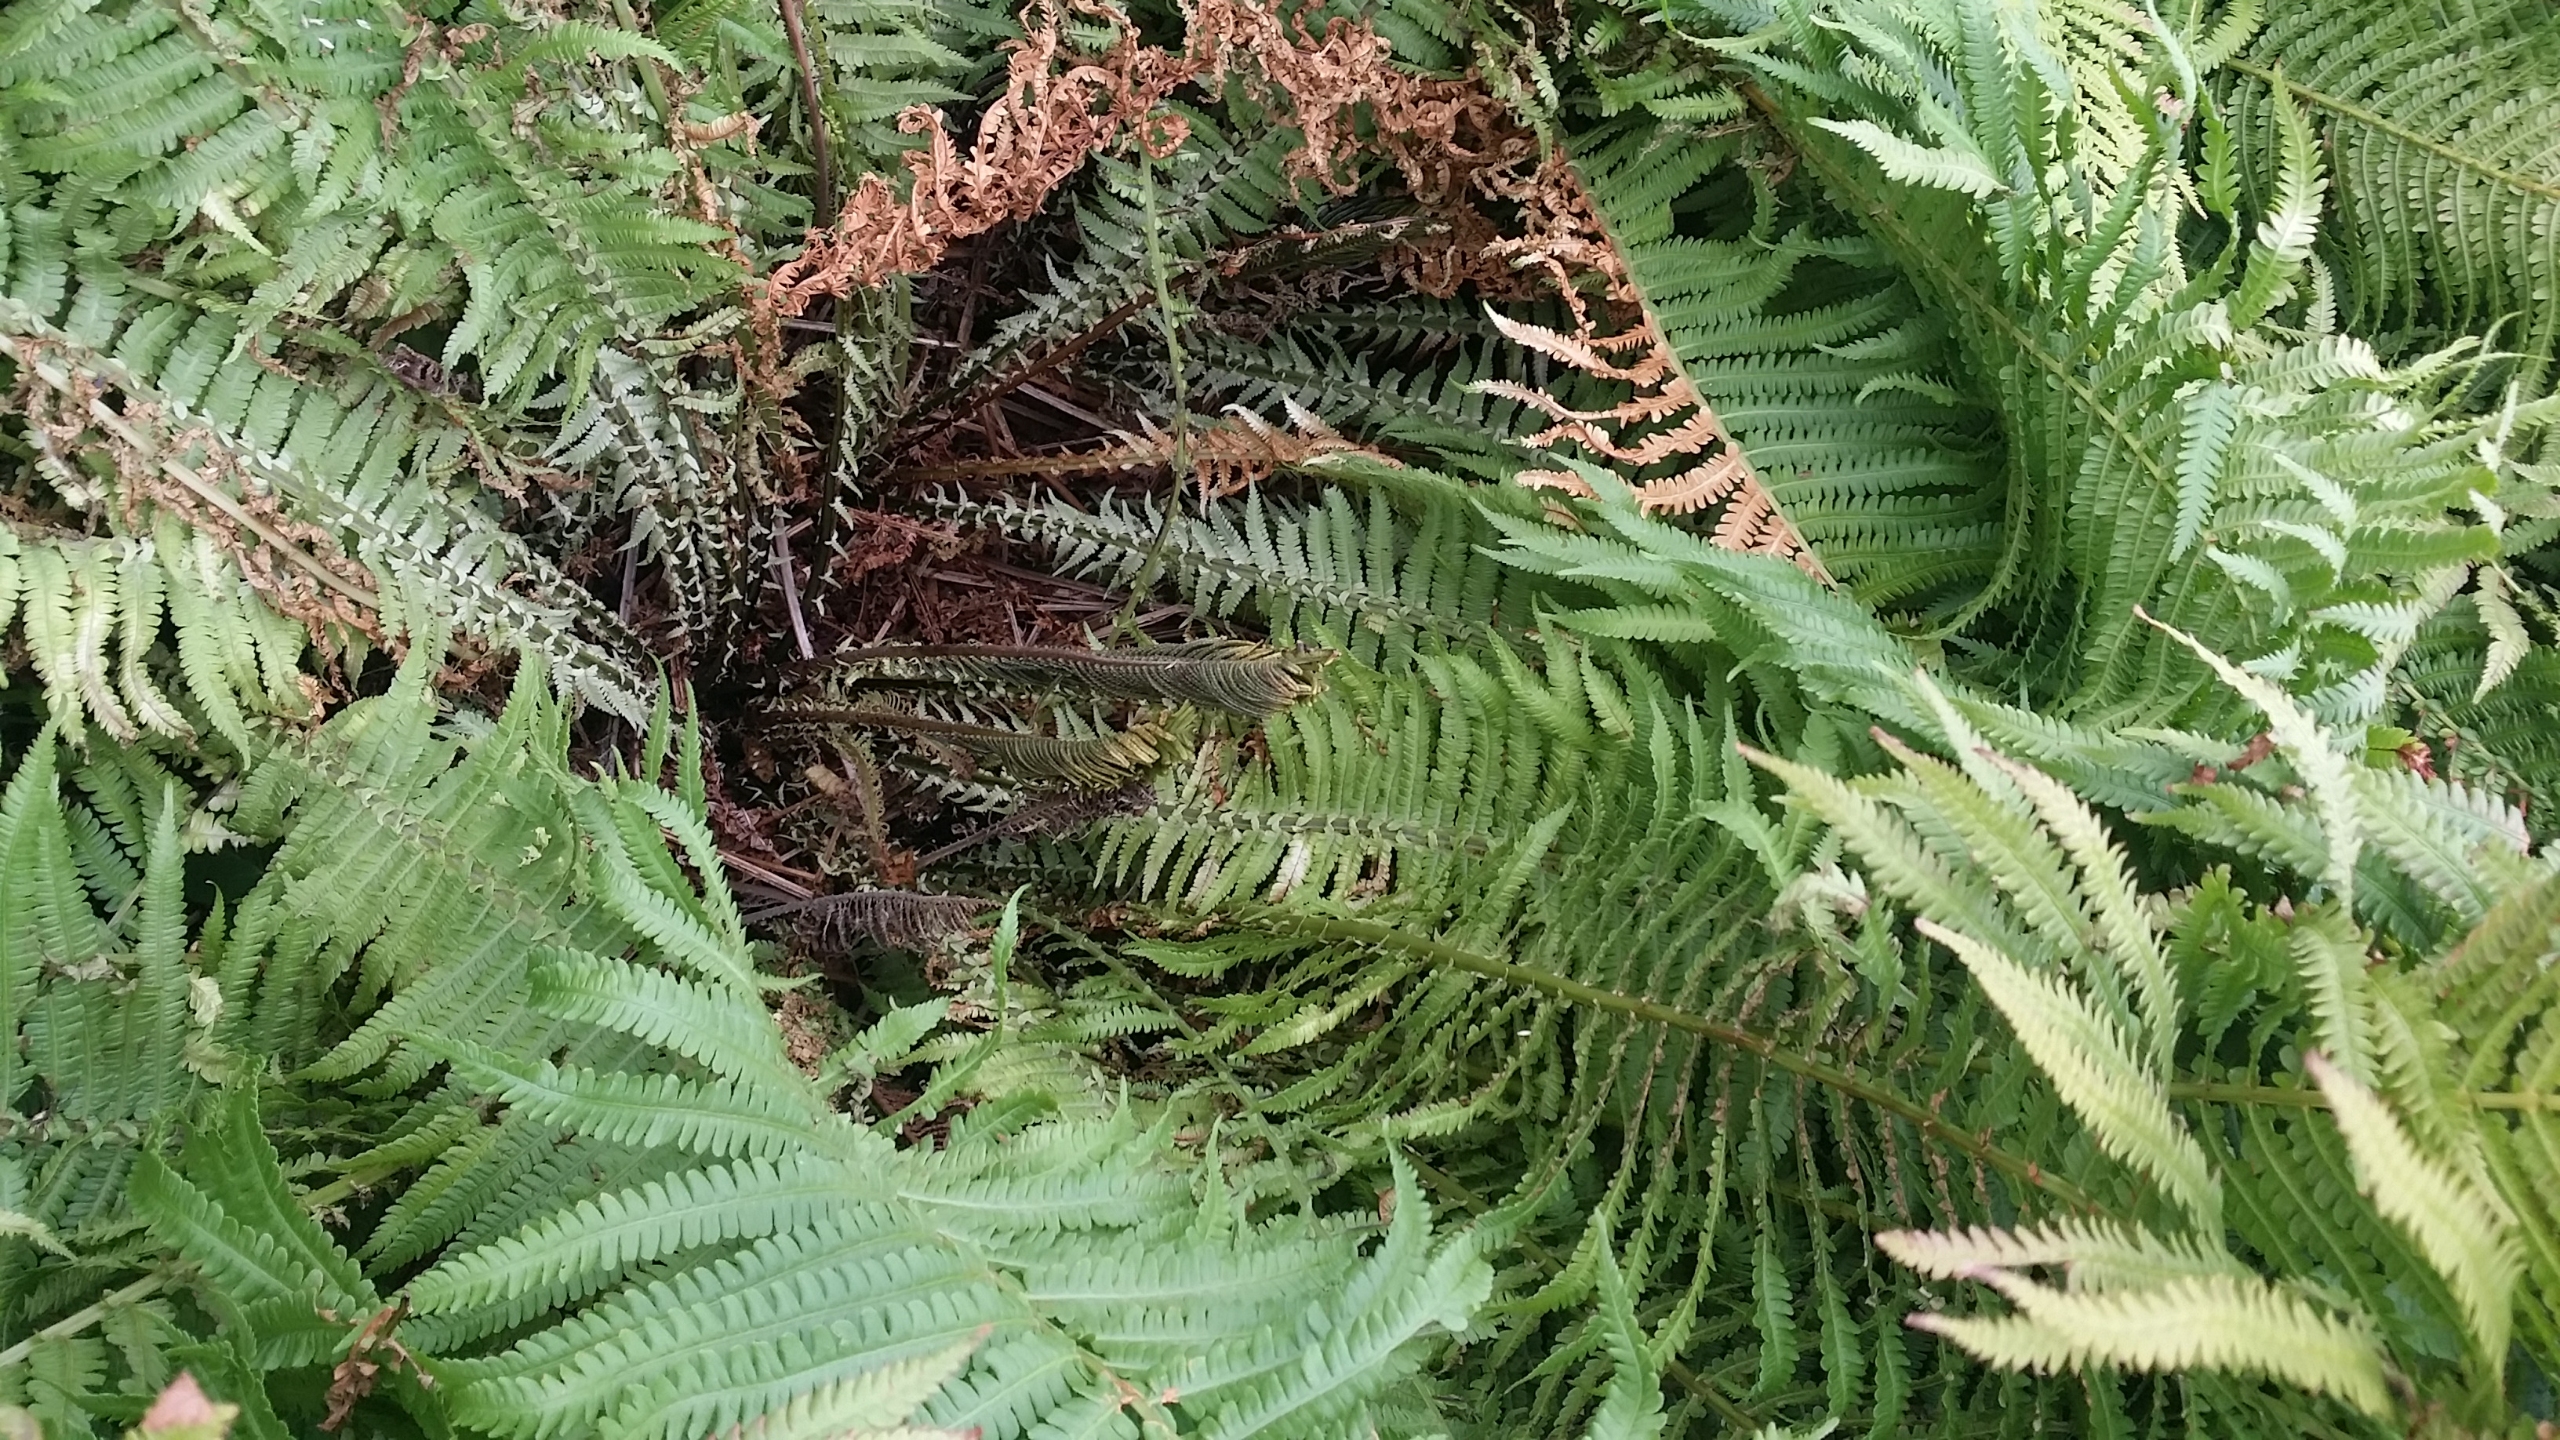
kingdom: Plantae
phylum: Tracheophyta
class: Polypodiopsida
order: Polypodiales
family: Onocleaceae
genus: Matteuccia
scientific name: Matteuccia struthiopteris
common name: Strudsvinge
